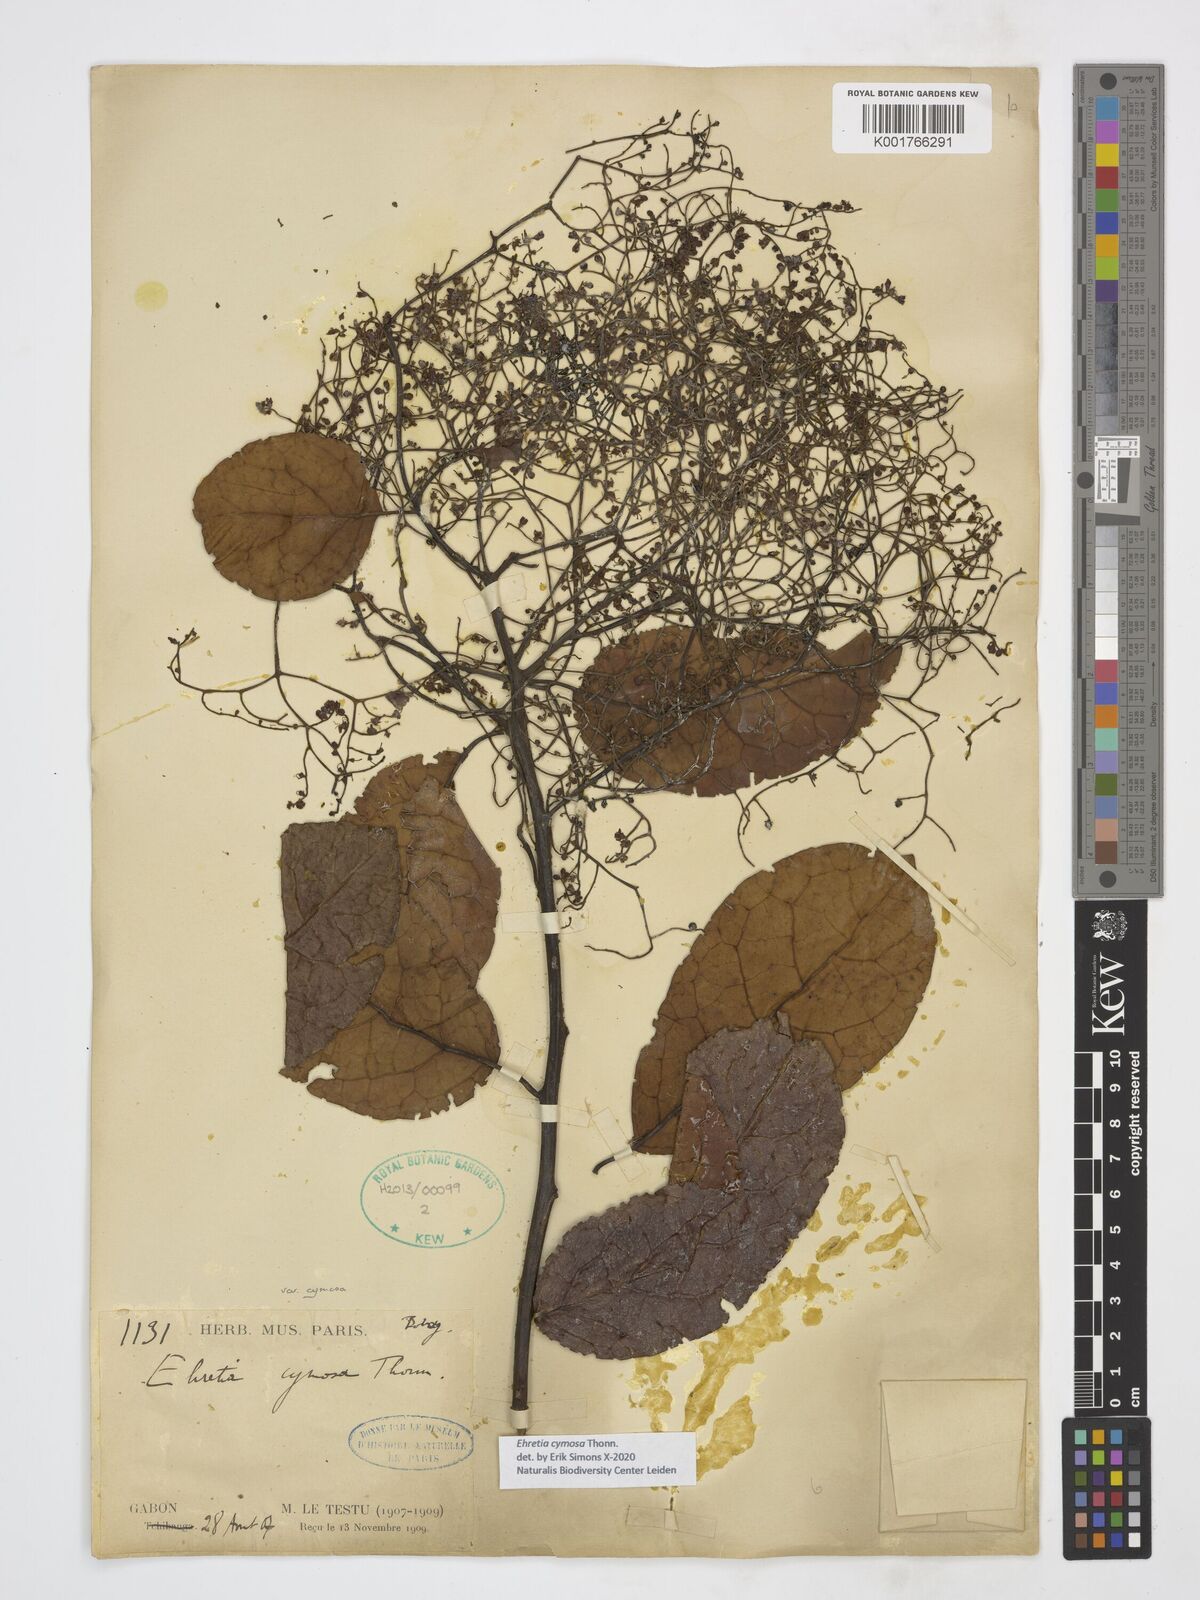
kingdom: Plantae
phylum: Tracheophyta
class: Magnoliopsida
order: Boraginales
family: Ehretiaceae
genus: Ehretia
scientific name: Ehretia cymosa
